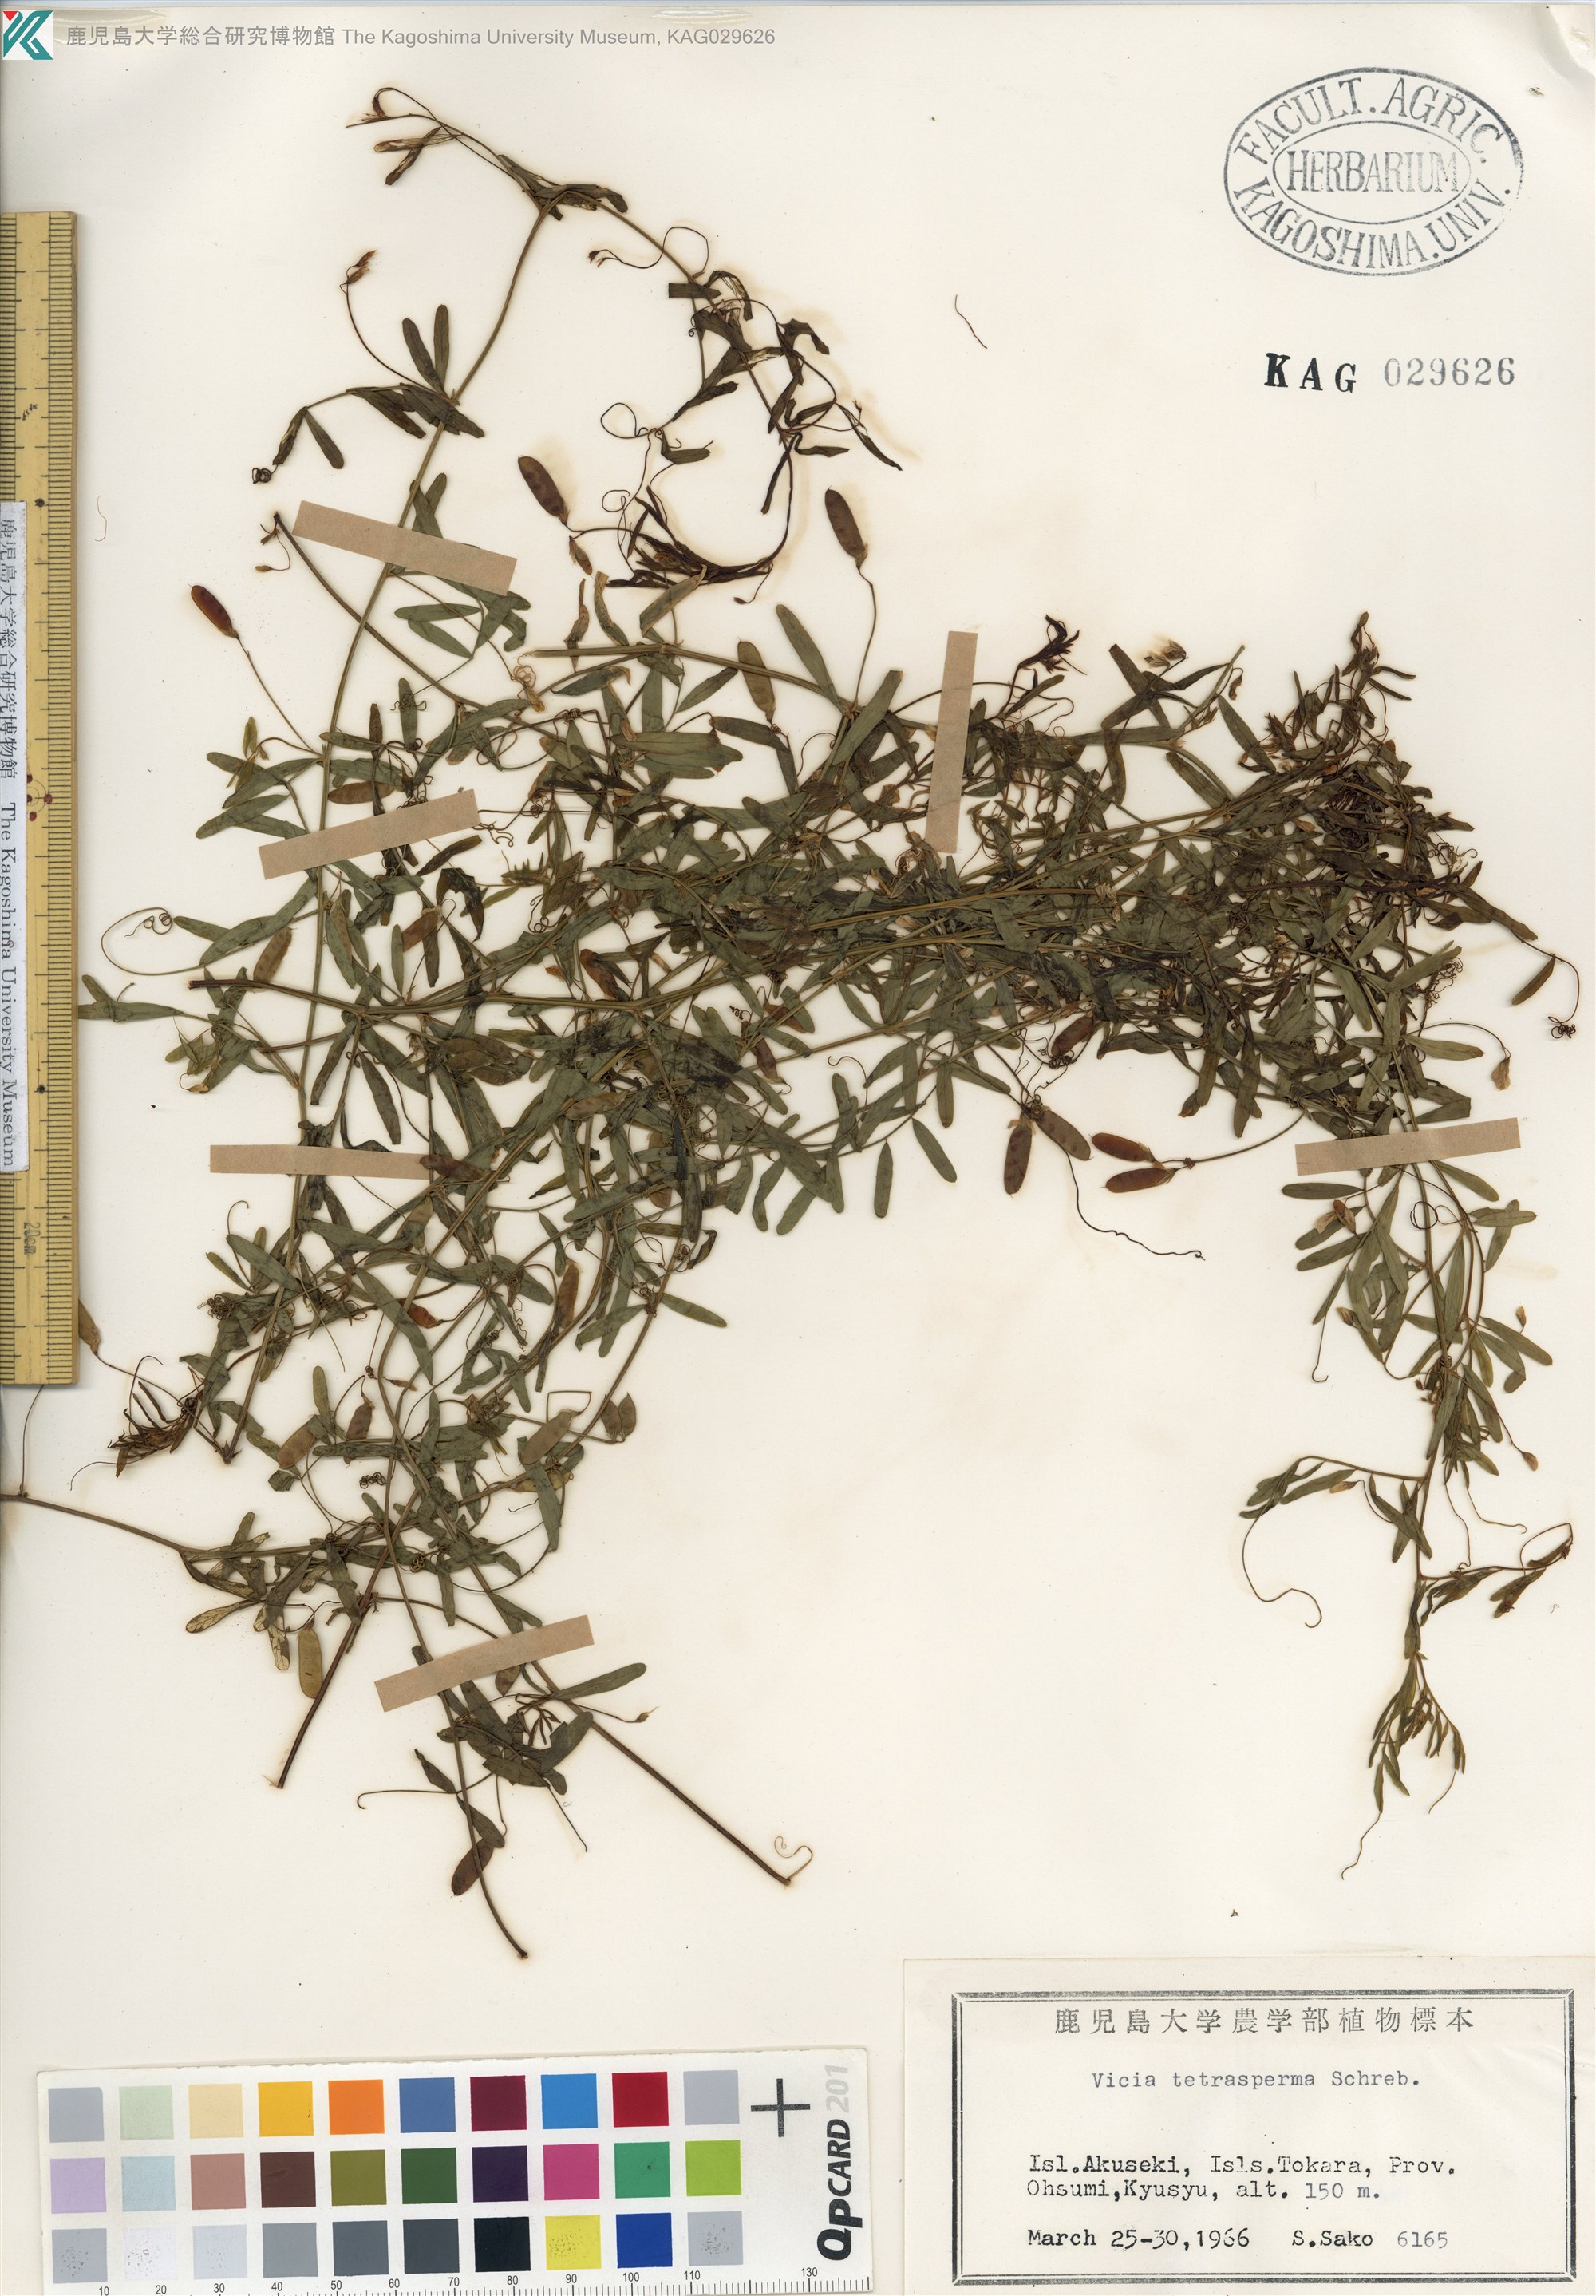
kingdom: Plantae
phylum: Tracheophyta
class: Magnoliopsida
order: Fabales
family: Fabaceae
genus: Vicia
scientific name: Vicia tetrasperma
